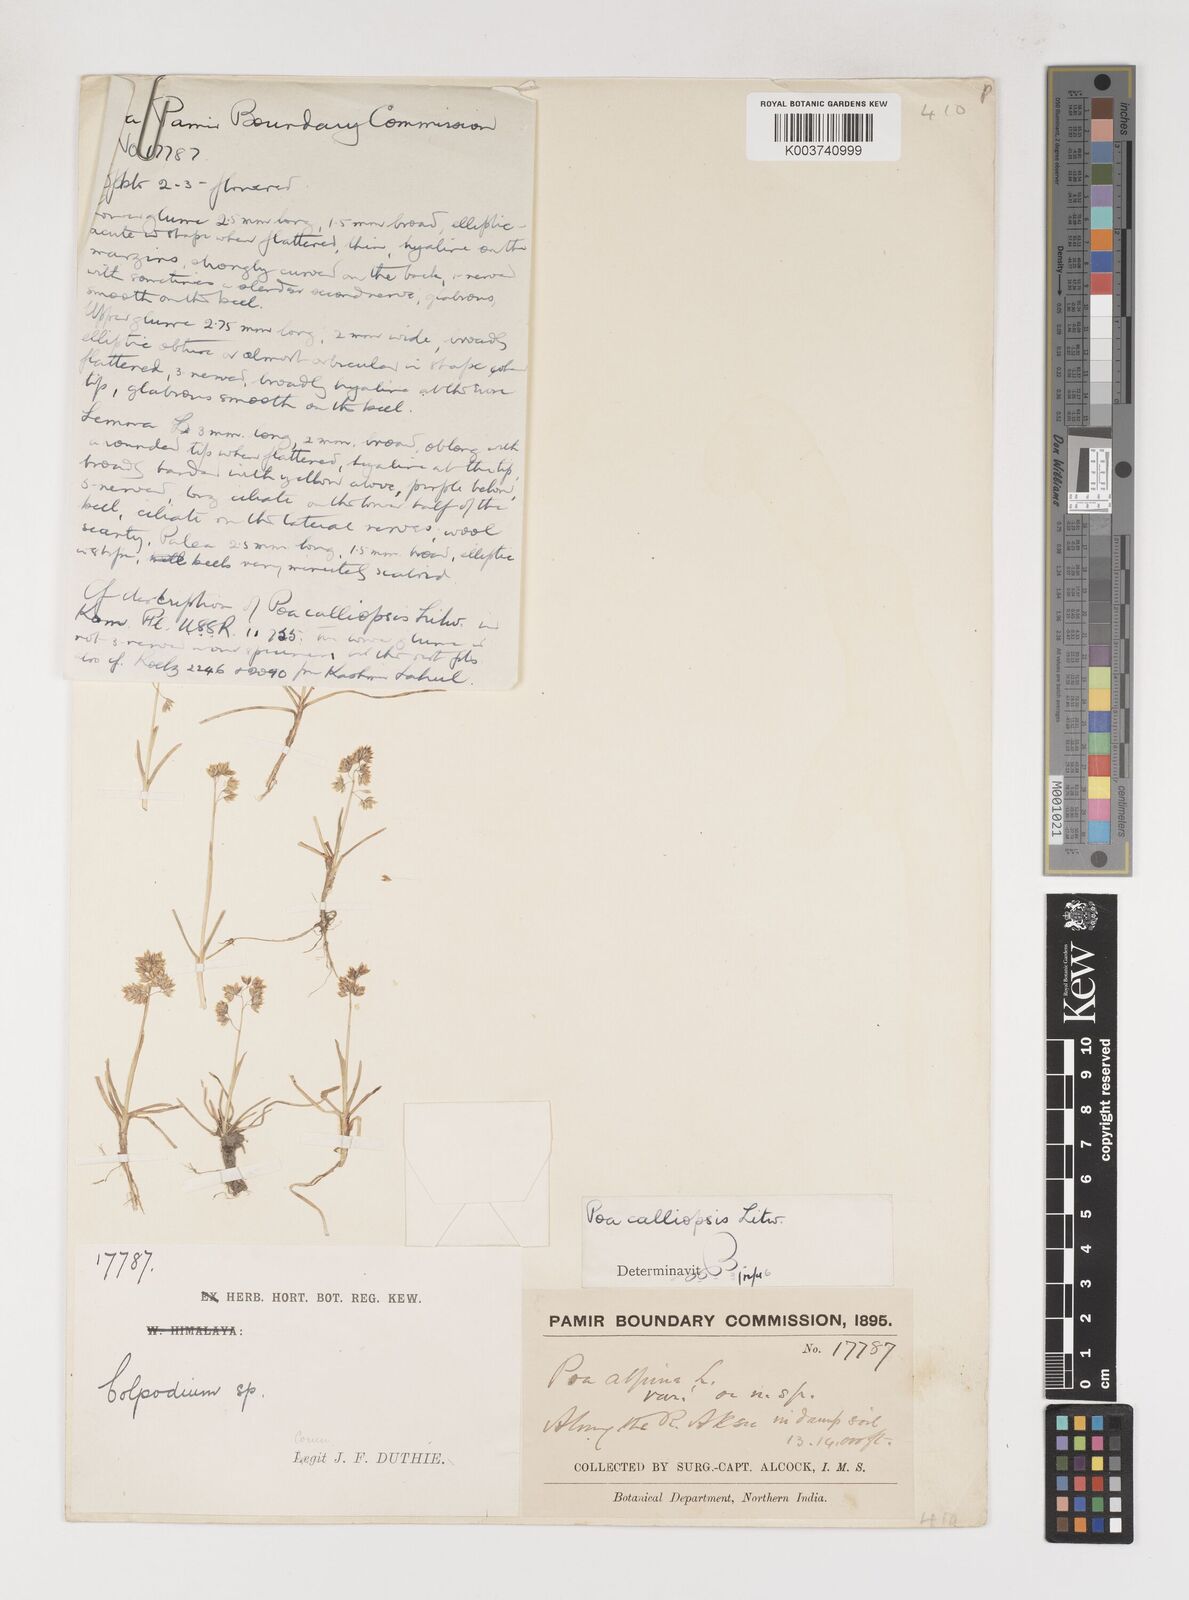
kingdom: Plantae
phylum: Tracheophyta
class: Liliopsida
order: Poales
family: Poaceae
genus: Poa
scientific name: Poa calliopsis
